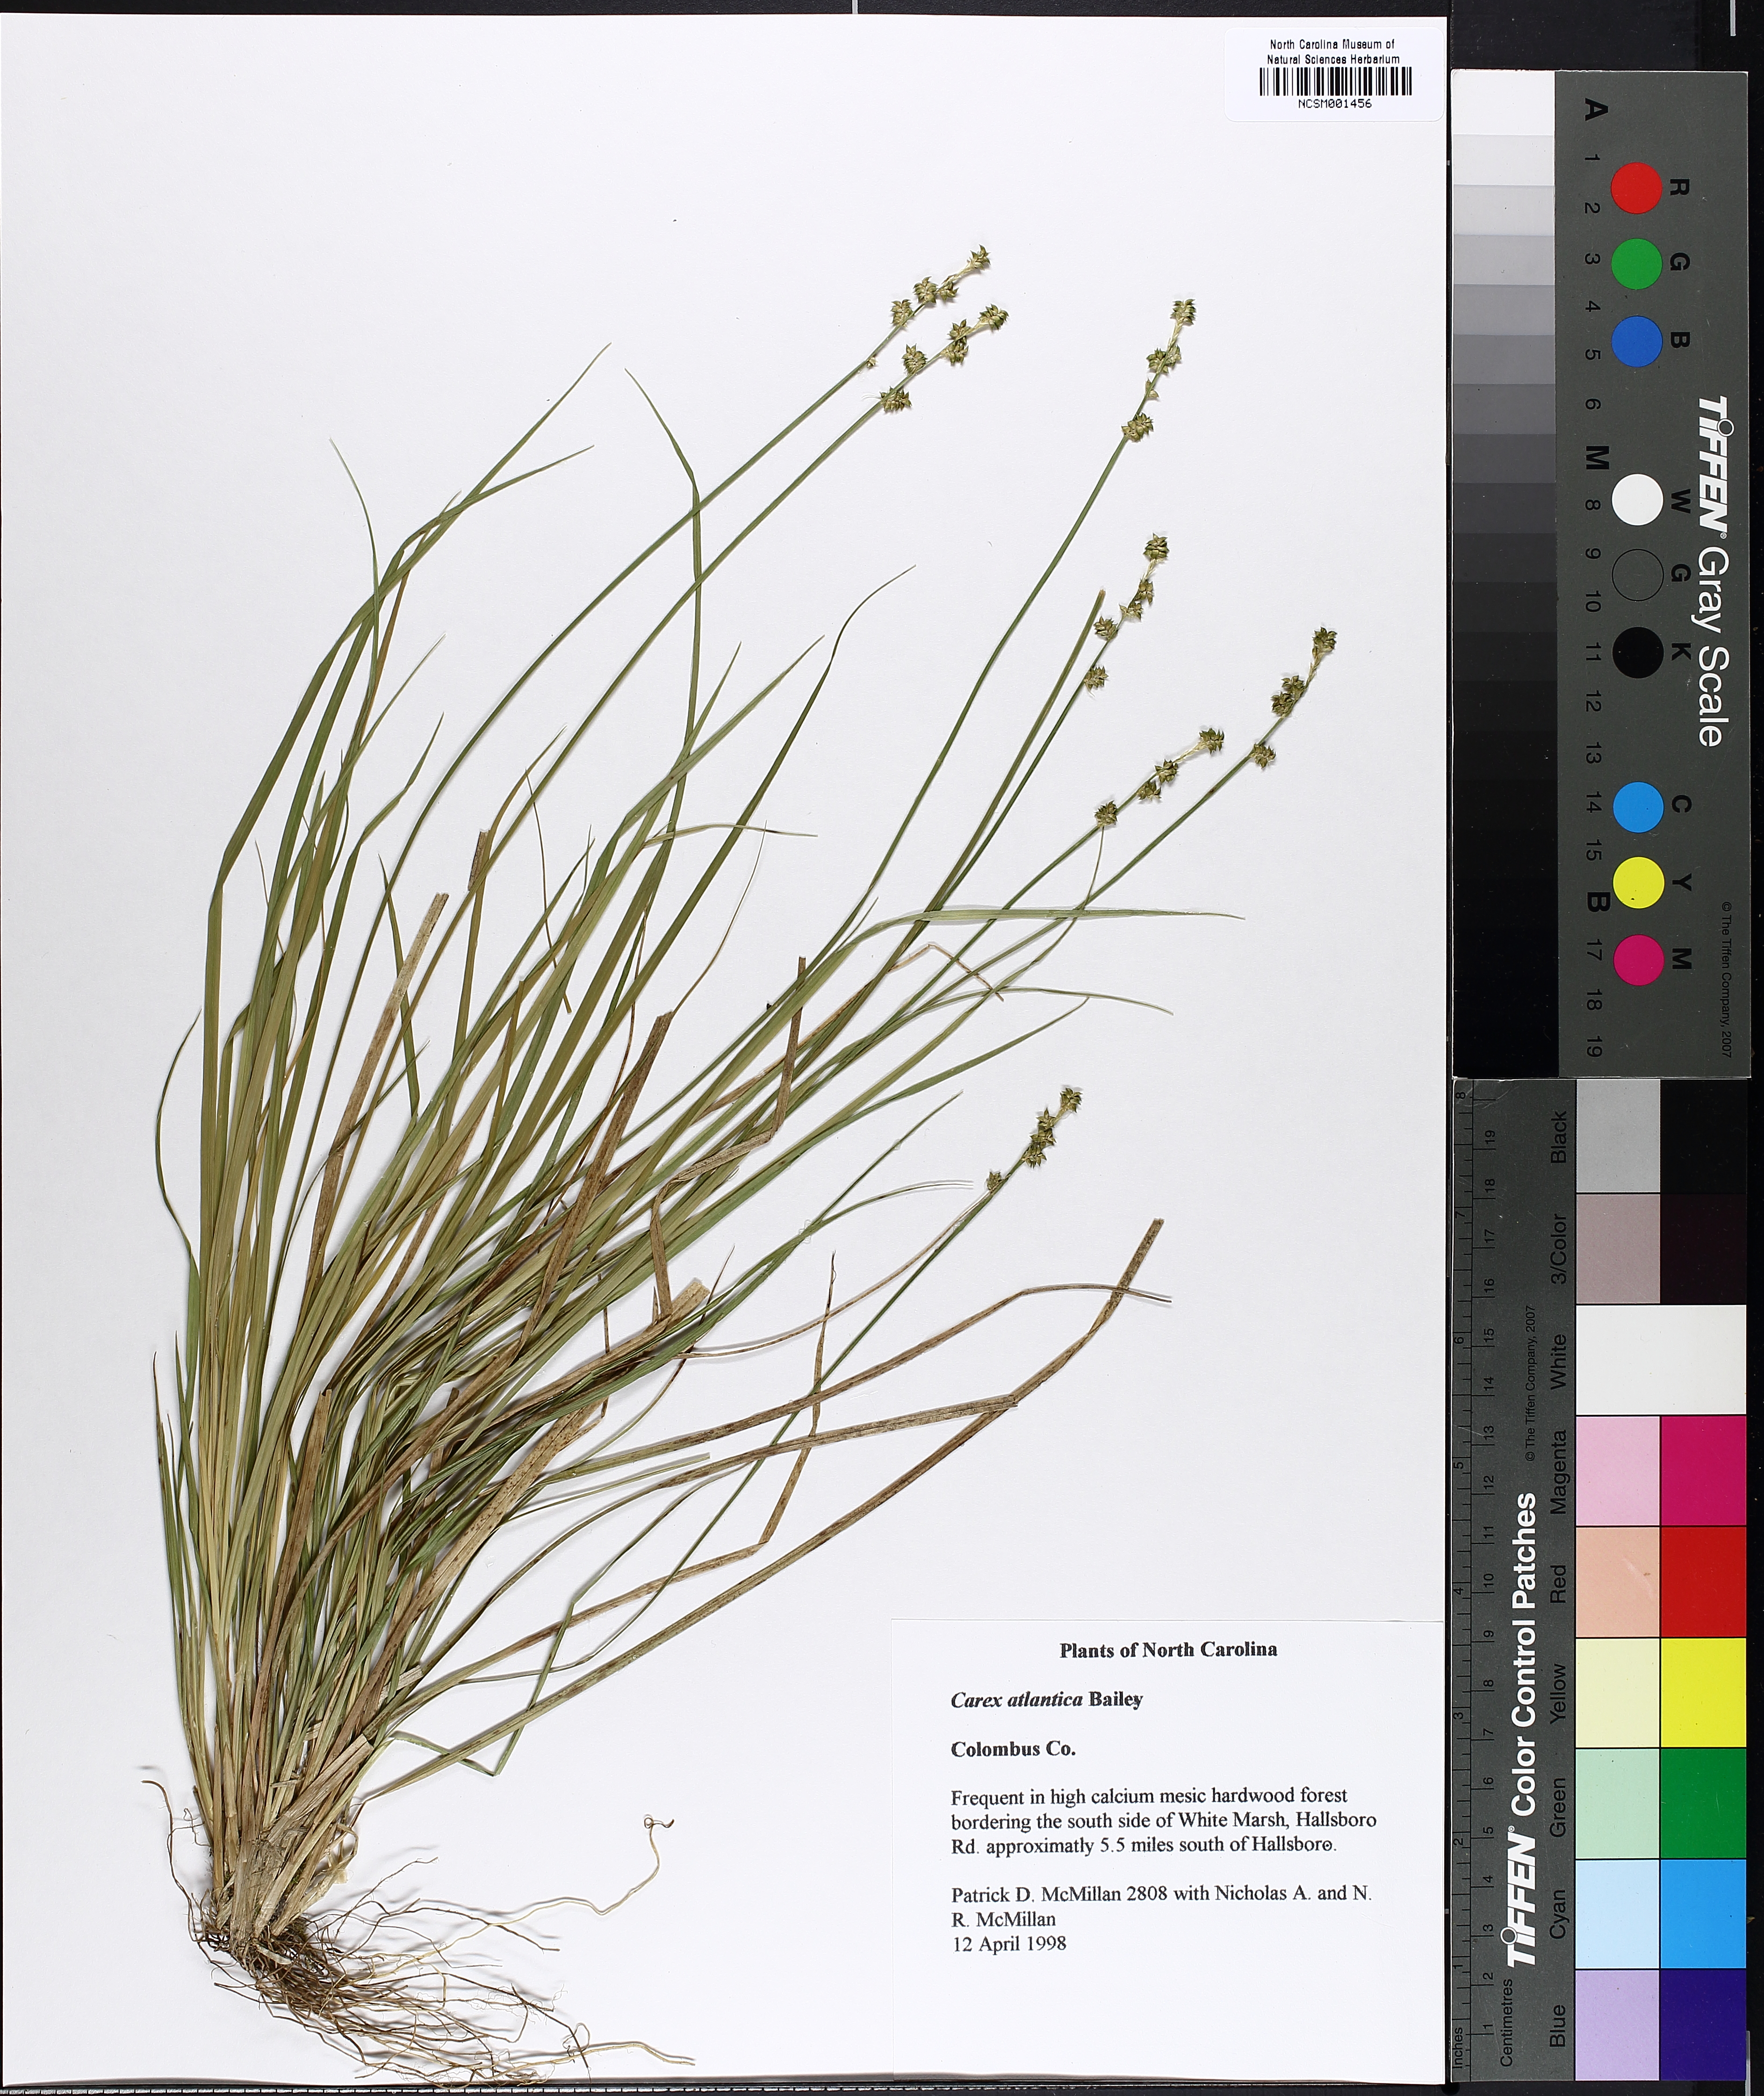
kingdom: Plantae
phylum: Tracheophyta
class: Liliopsida
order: Poales
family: Cyperaceae
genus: Carex
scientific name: Carex atlantica
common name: Atlantic sedge
